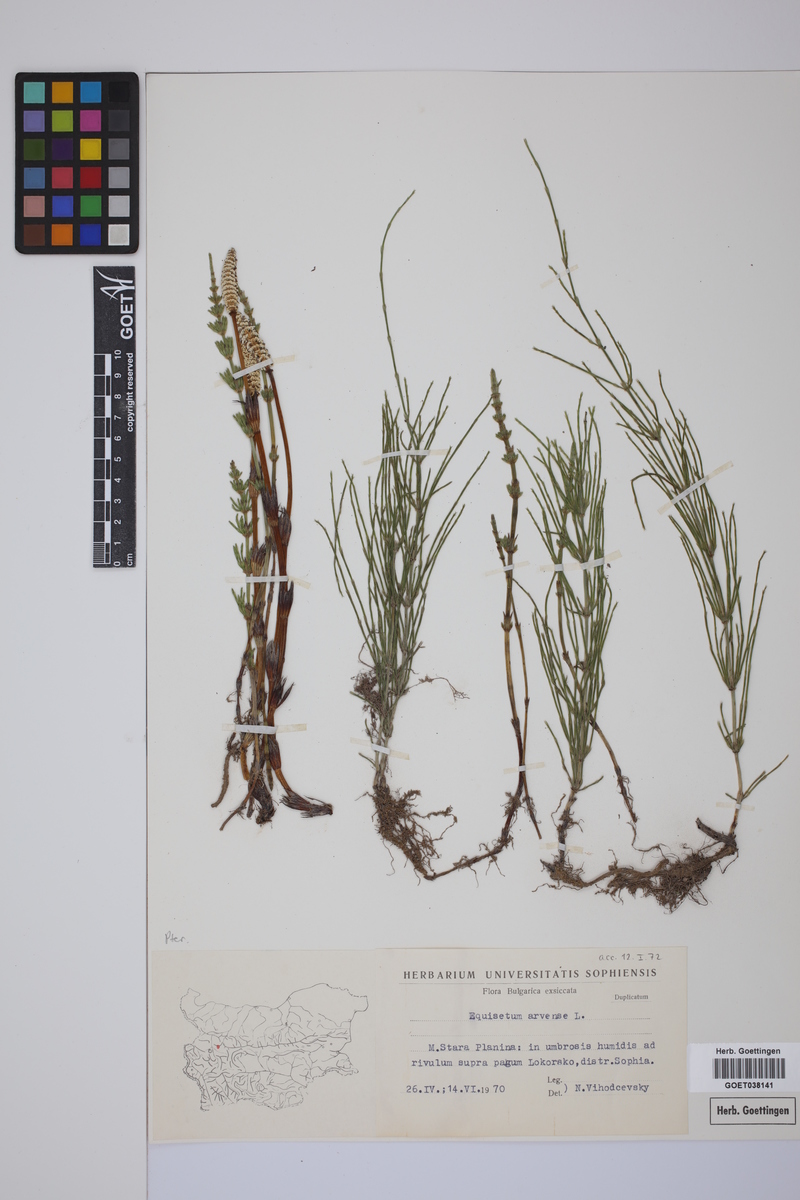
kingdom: Plantae
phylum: Tracheophyta
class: Polypodiopsida
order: Equisetales
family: Equisetaceae
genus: Equisetum
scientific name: Equisetum arvense
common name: Field horsetail
